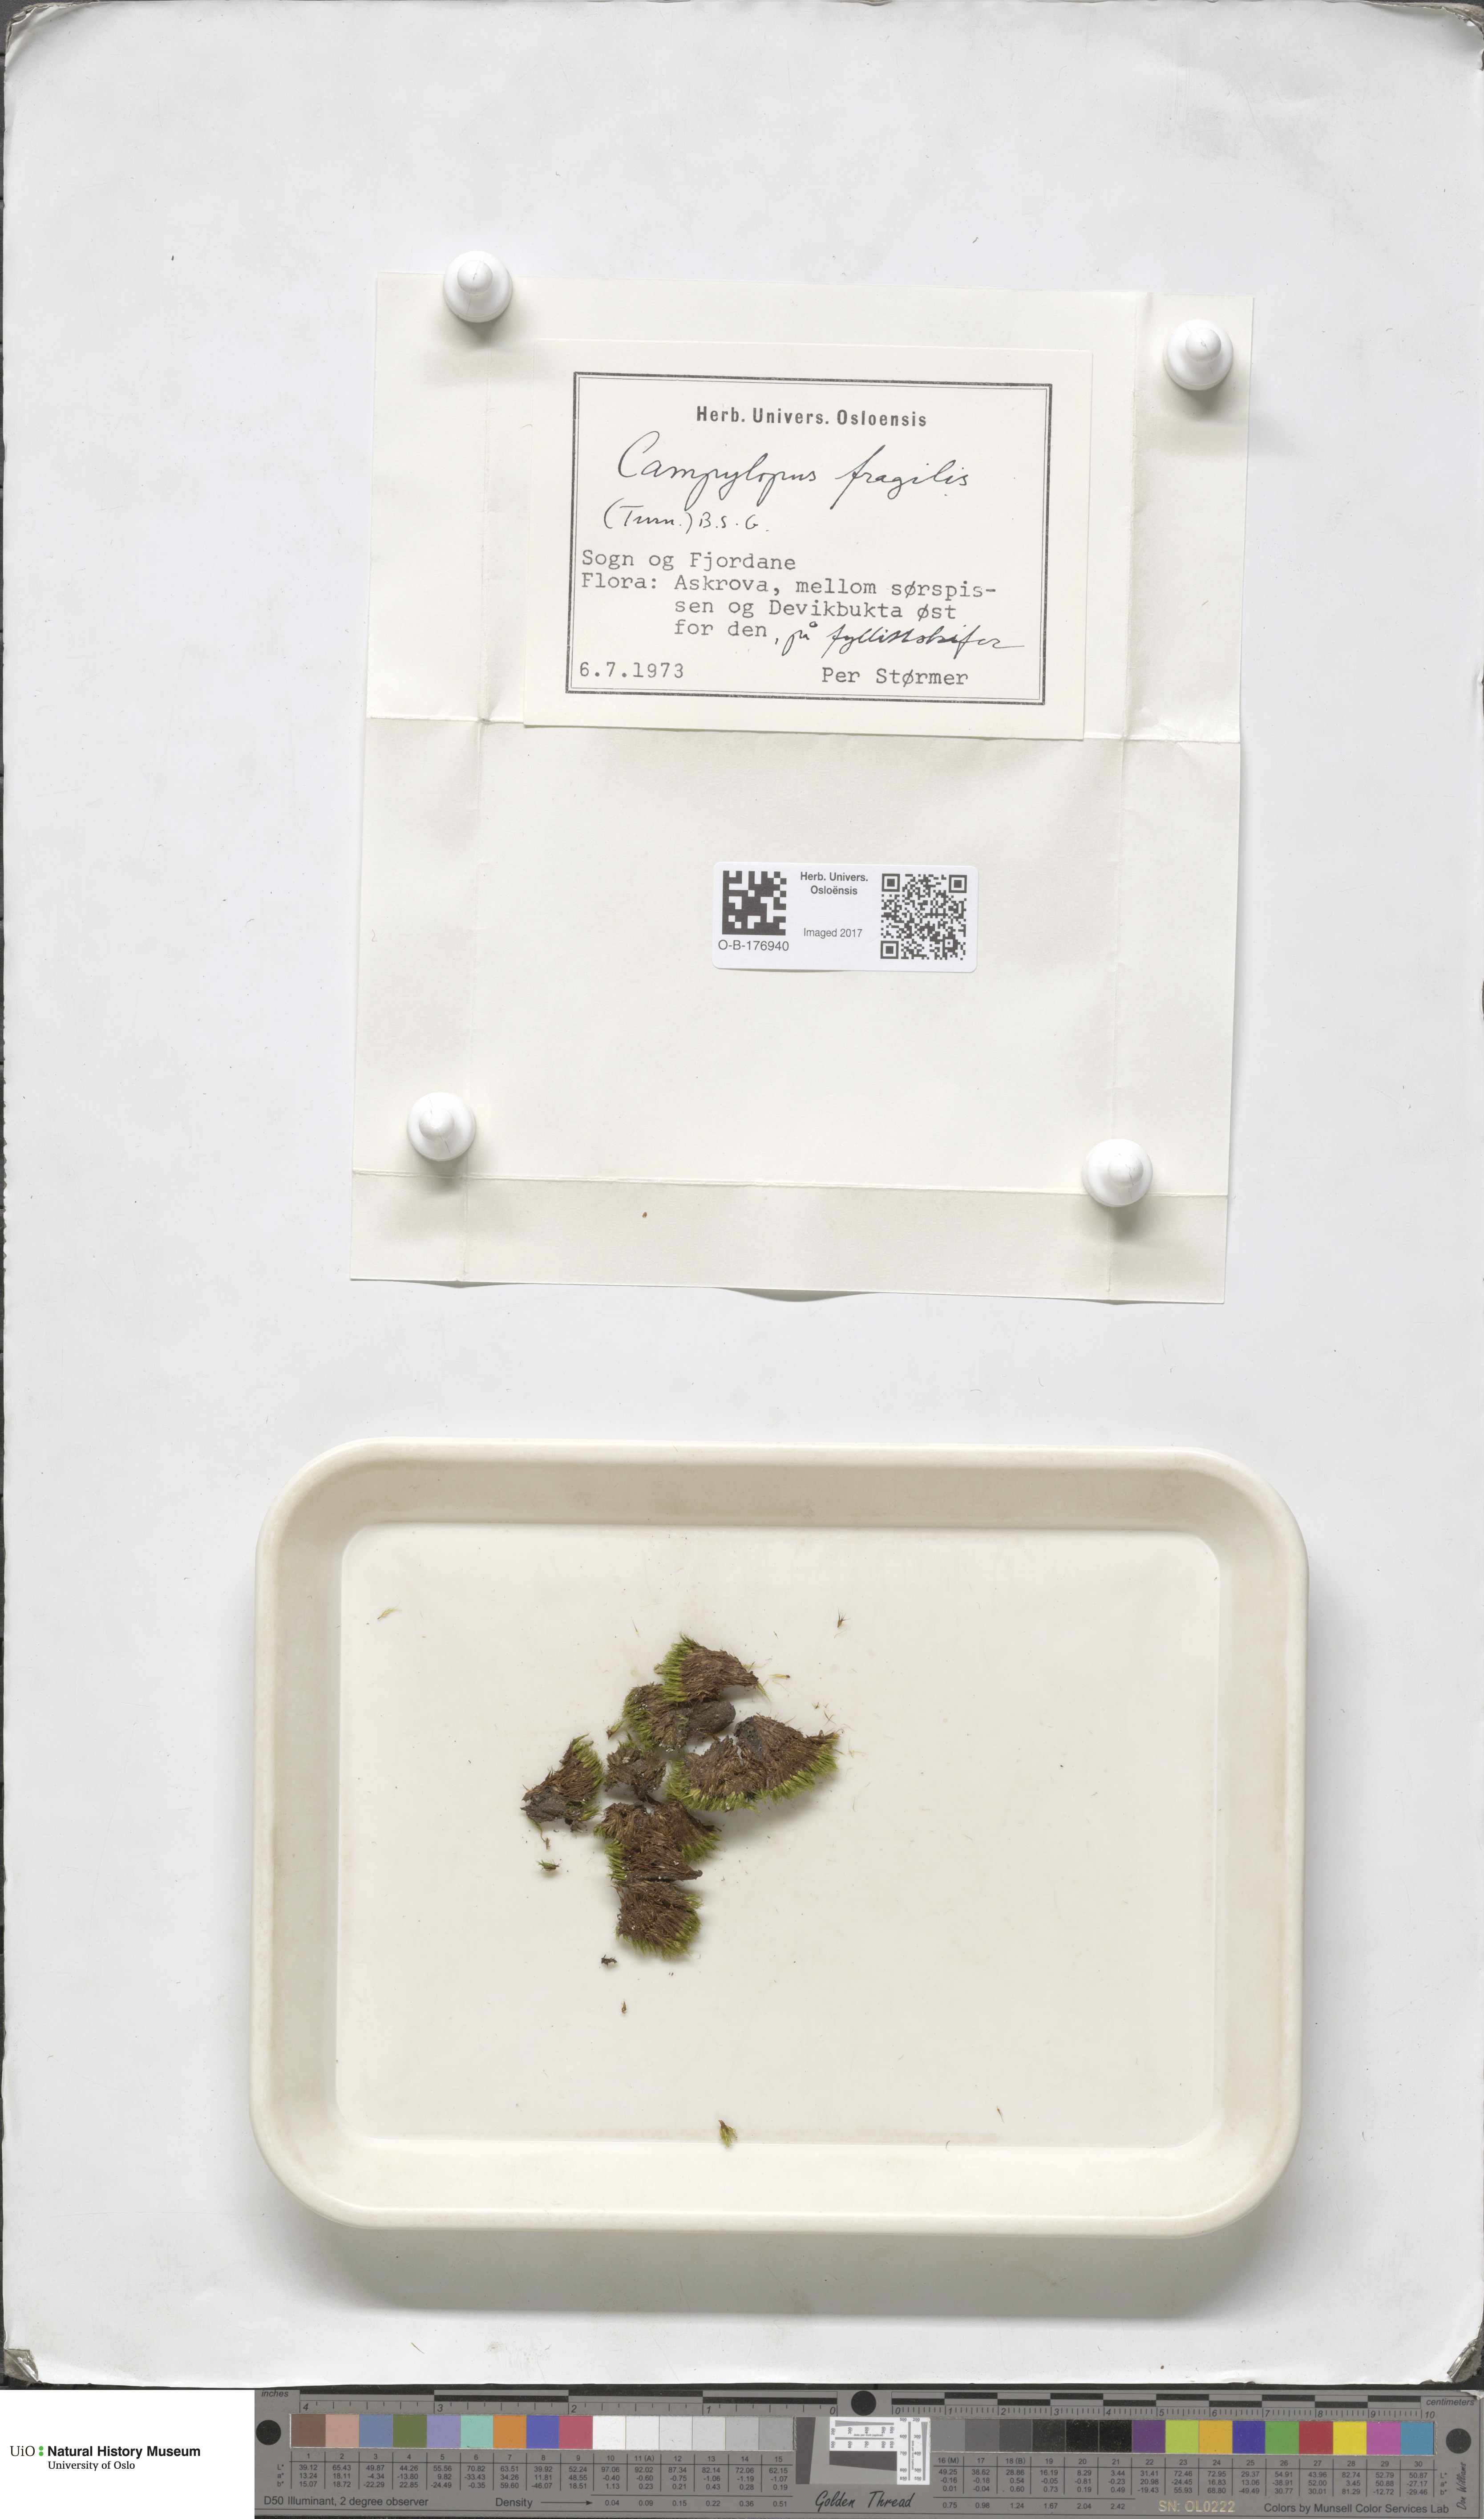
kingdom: Plantae
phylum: Bryophyta
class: Bryopsida
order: Dicranales
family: Leucobryaceae
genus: Campylopus
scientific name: Campylopus fragilis
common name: Brittle swan-neck moss
